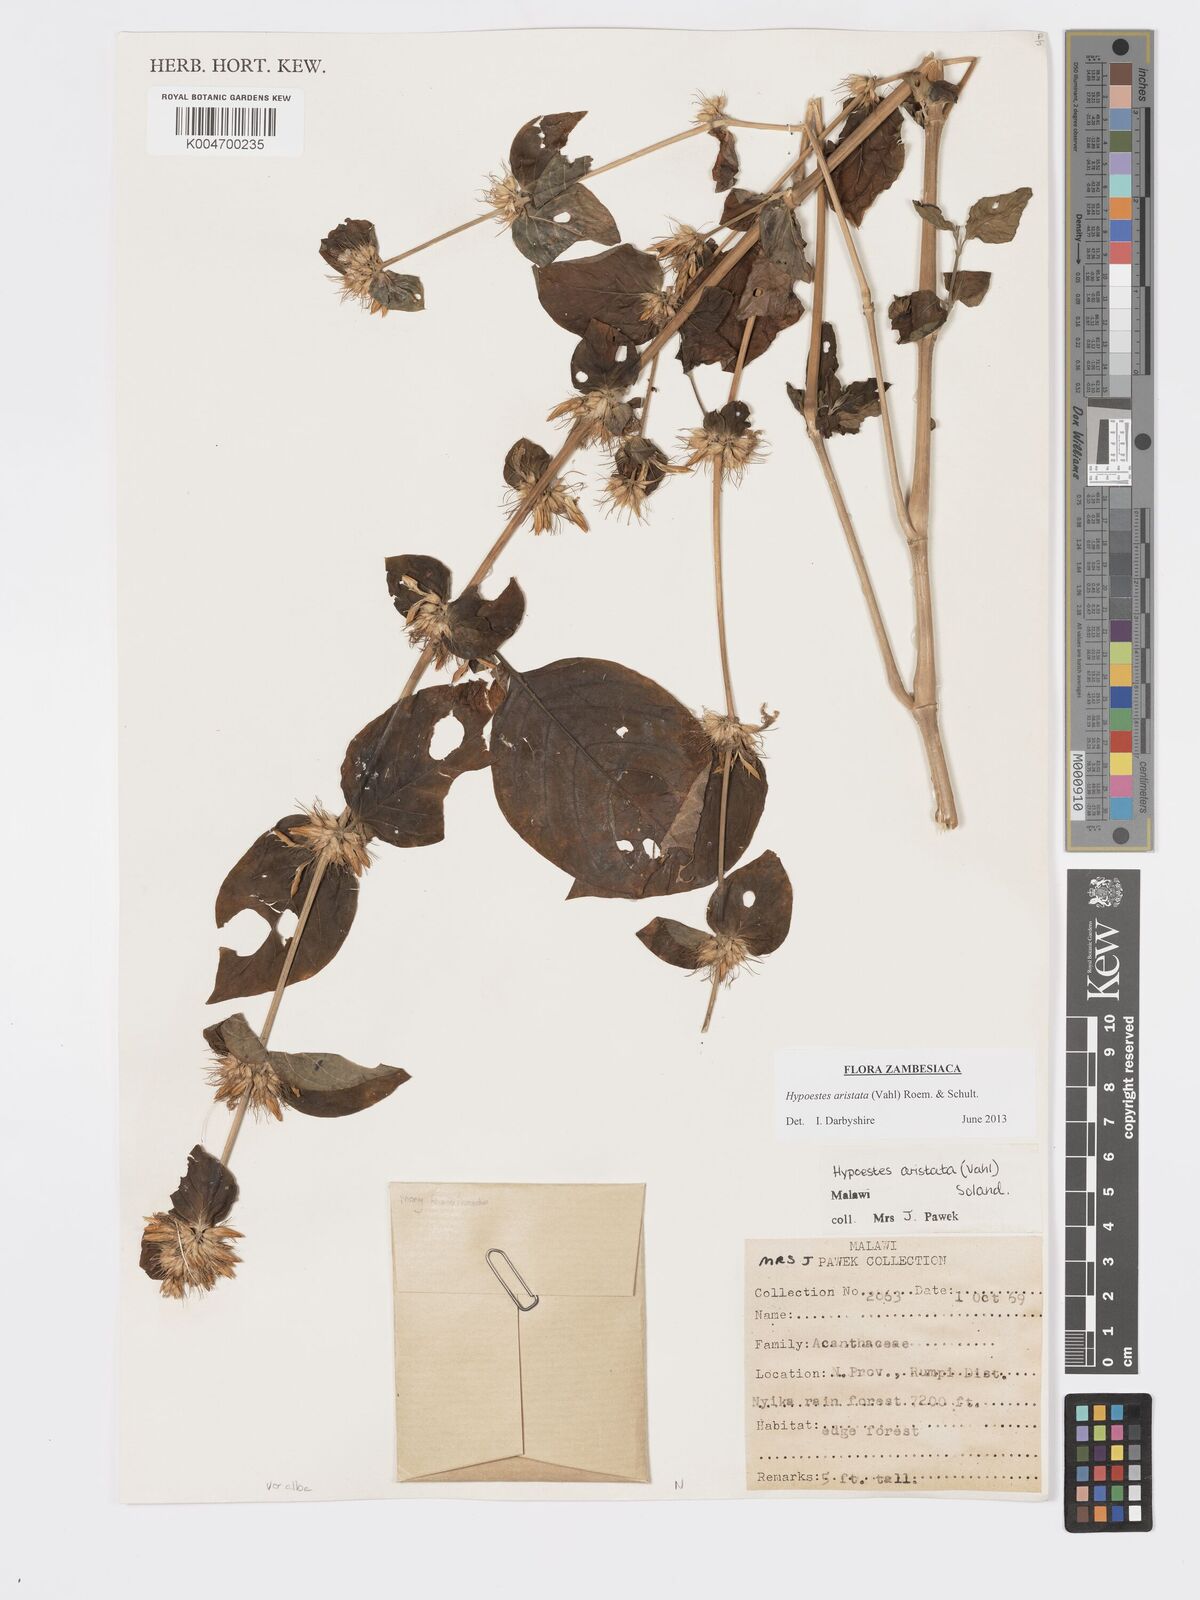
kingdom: Plantae
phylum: Tracheophyta
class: Magnoliopsida
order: Lamiales
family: Acanthaceae
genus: Hypoestes
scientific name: Hypoestes aristata
